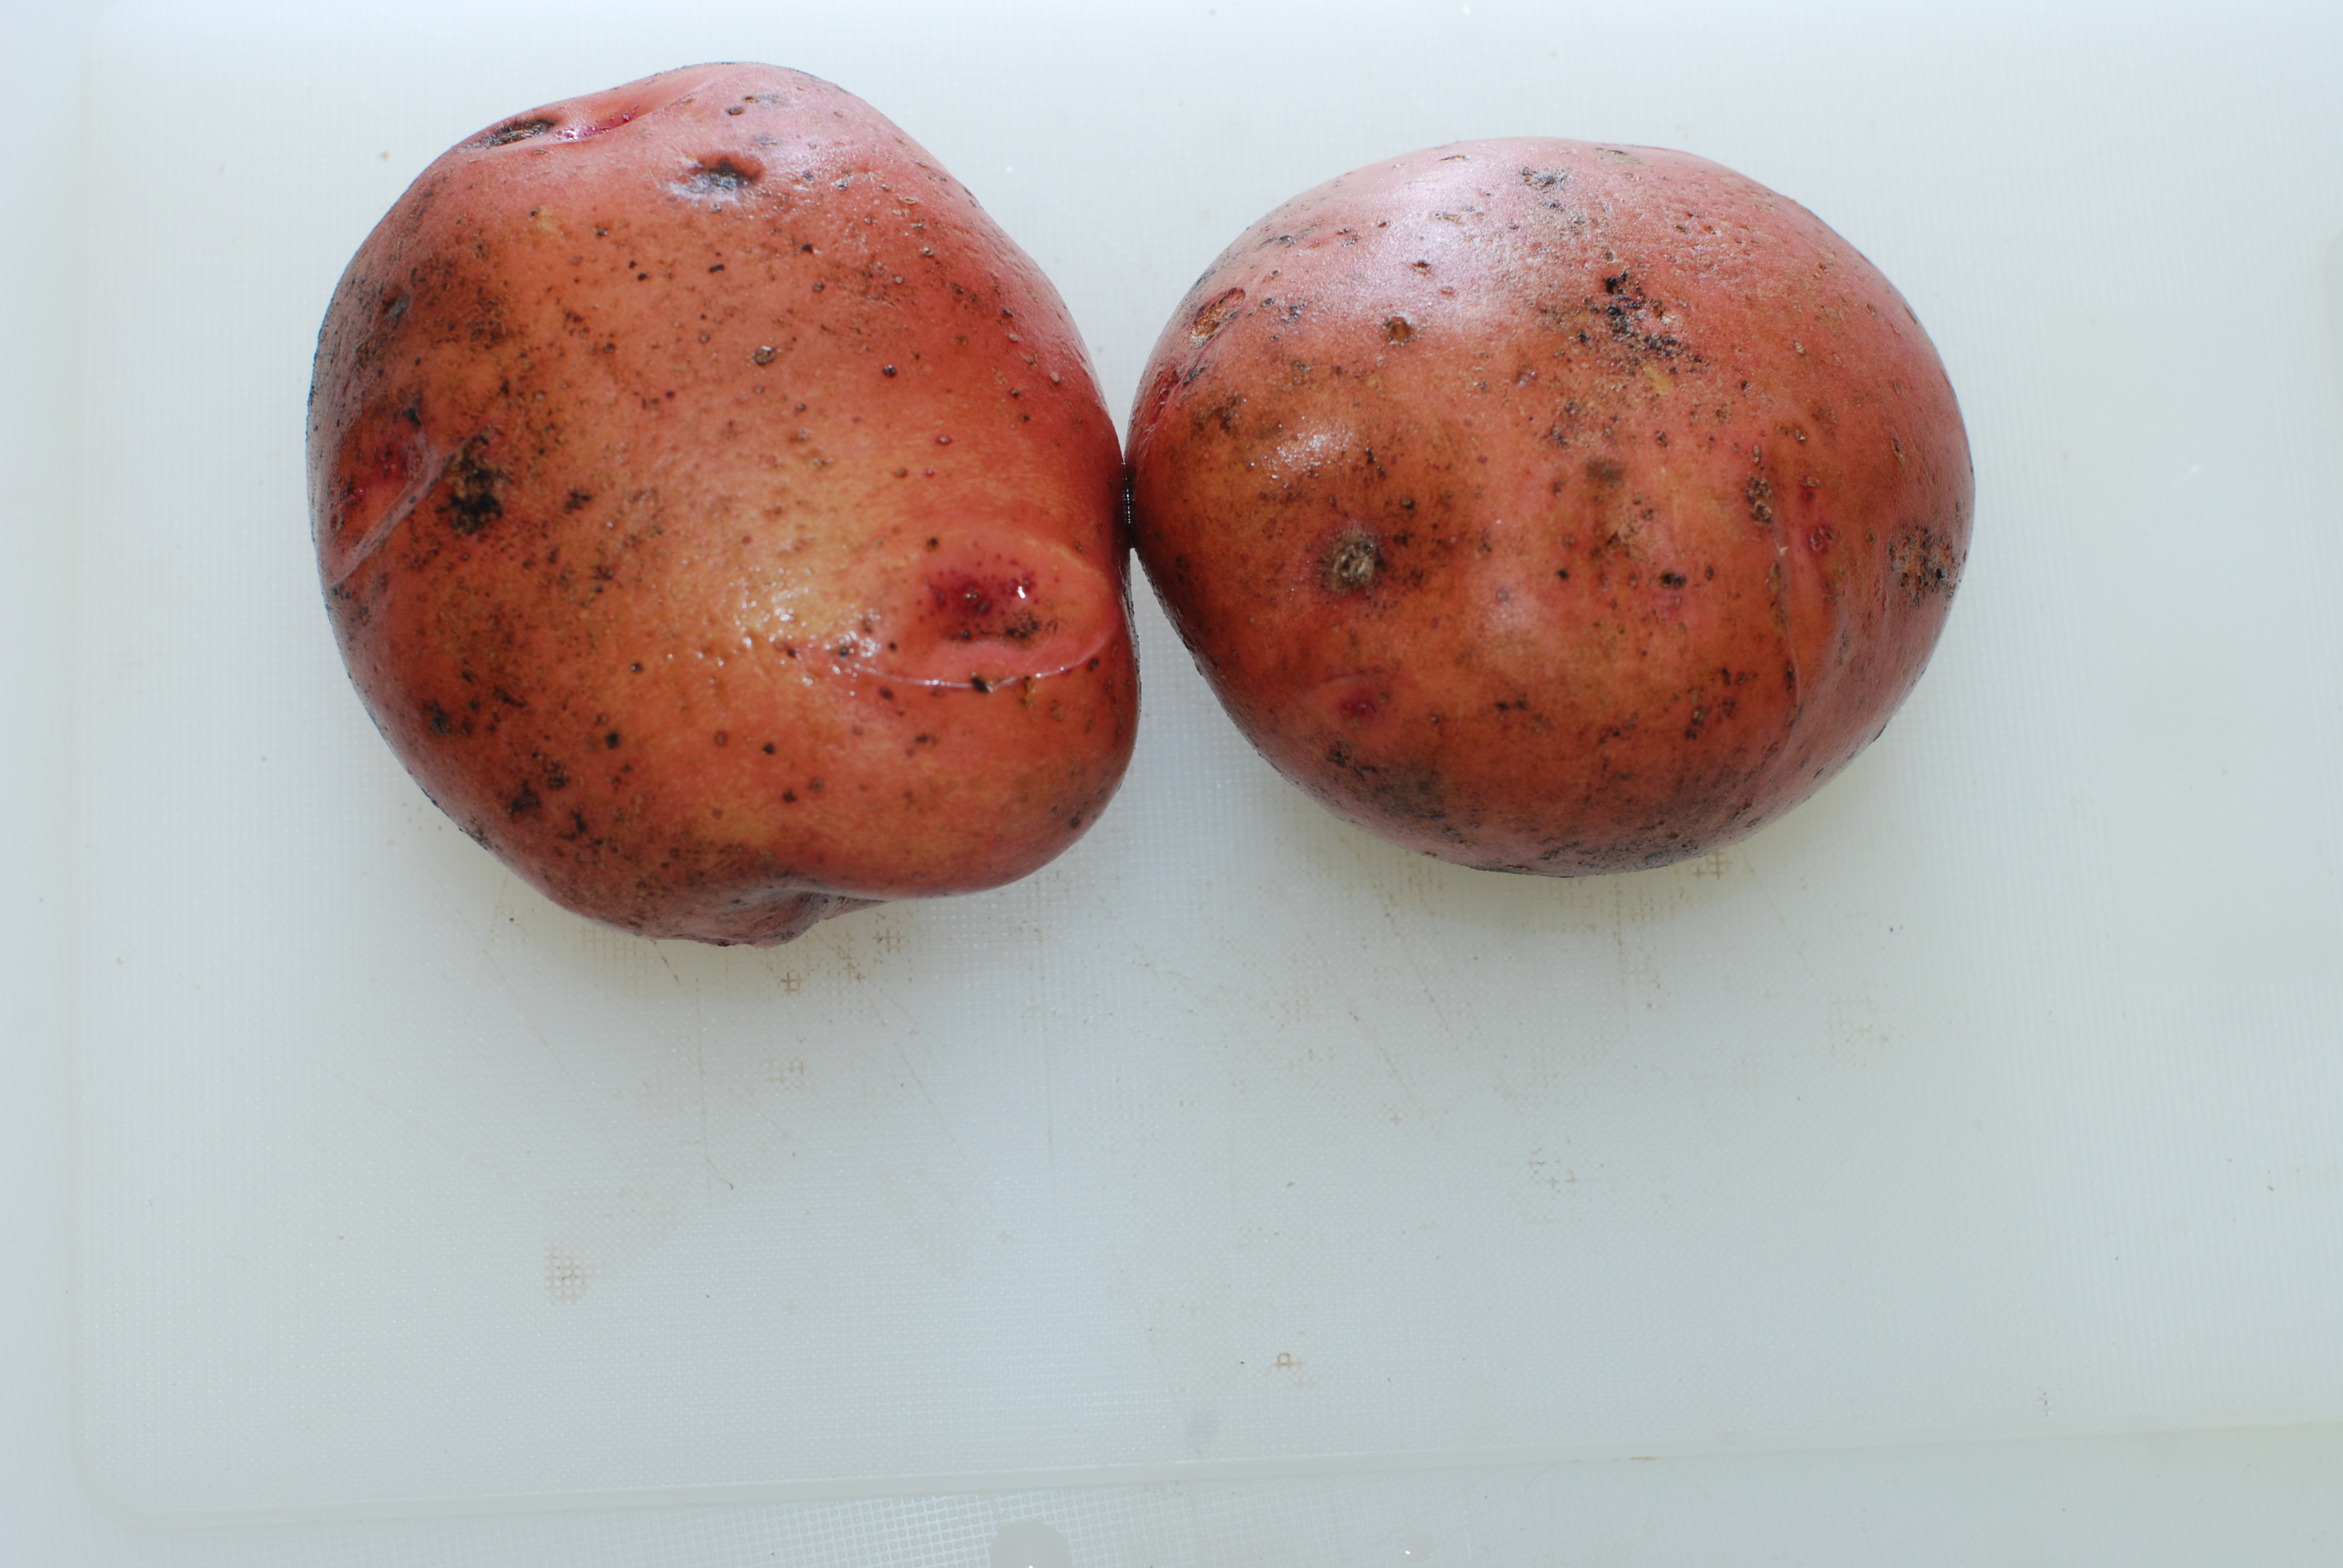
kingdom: Plantae
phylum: Tracheophyta
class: Magnoliopsida
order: Solanales
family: Solanaceae
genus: Solanum
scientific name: Solanum tuberosum
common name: Potato
